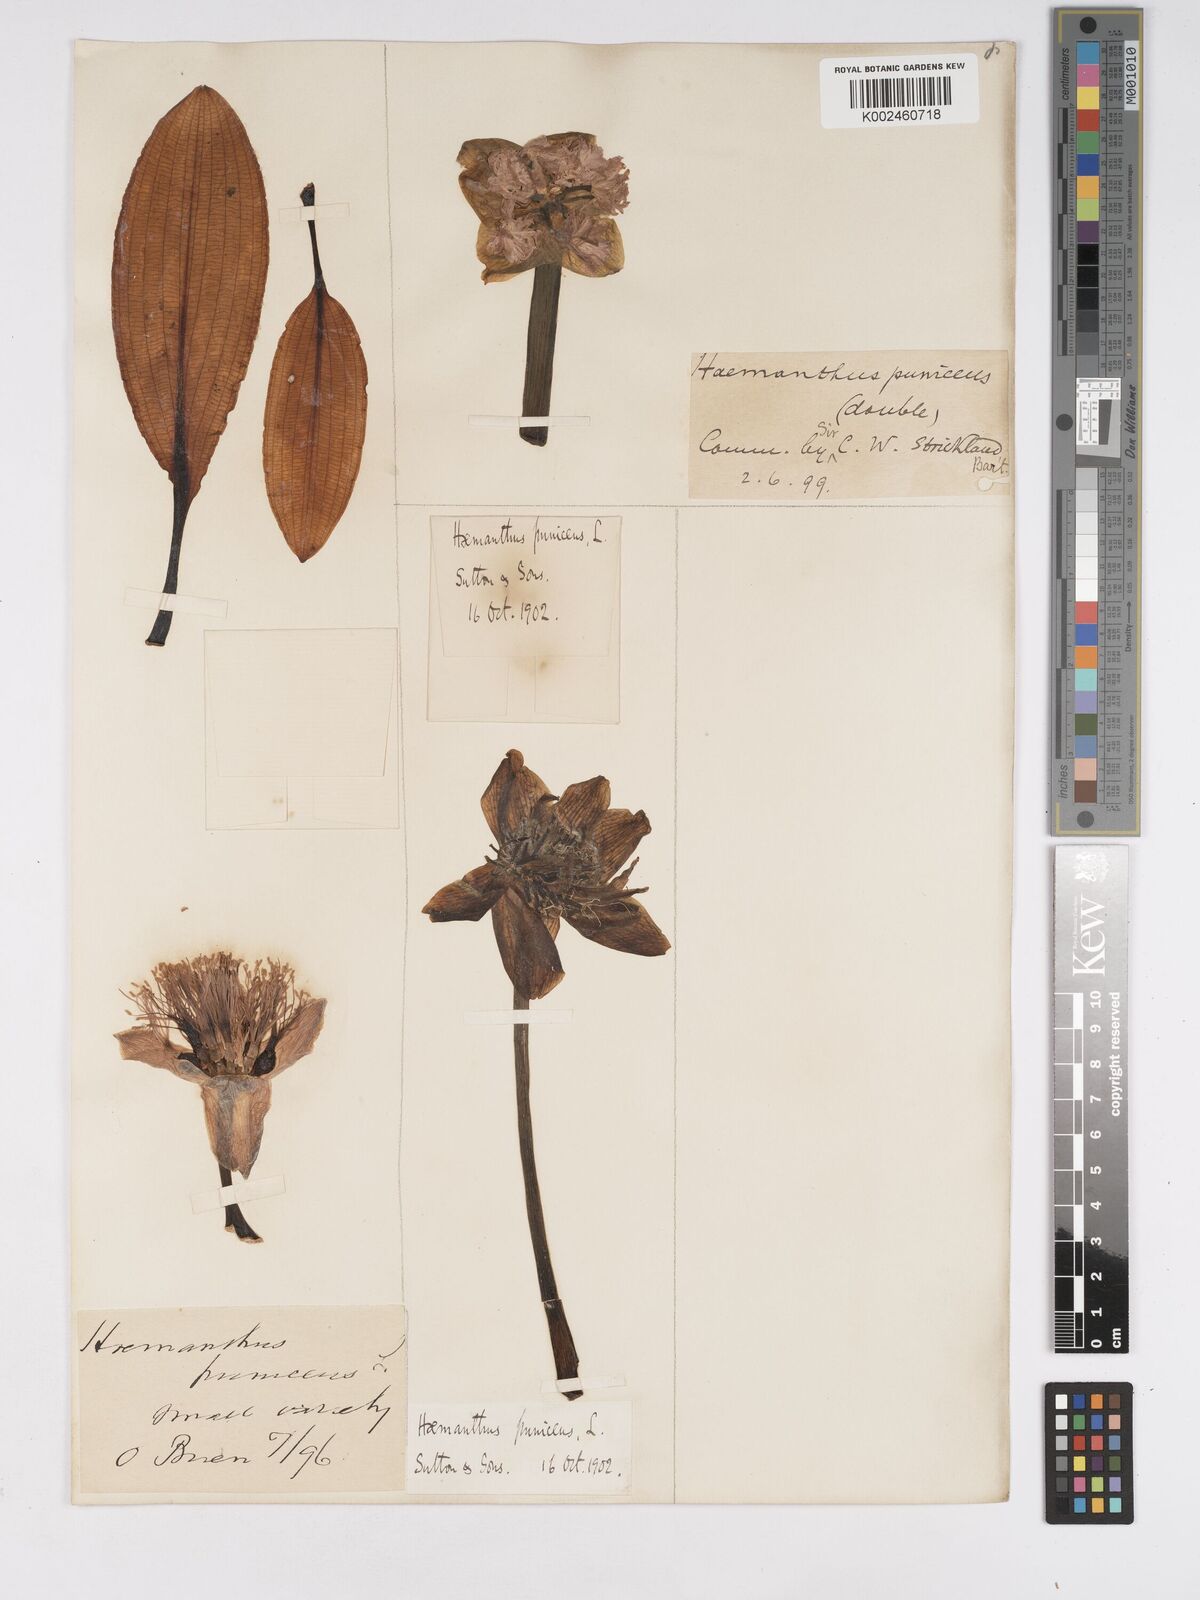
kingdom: Plantae
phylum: Tracheophyta
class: Liliopsida
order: Asparagales
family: Amaryllidaceae
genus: Scadoxus
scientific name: Scadoxus puniceus
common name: Royal-paintbrush
